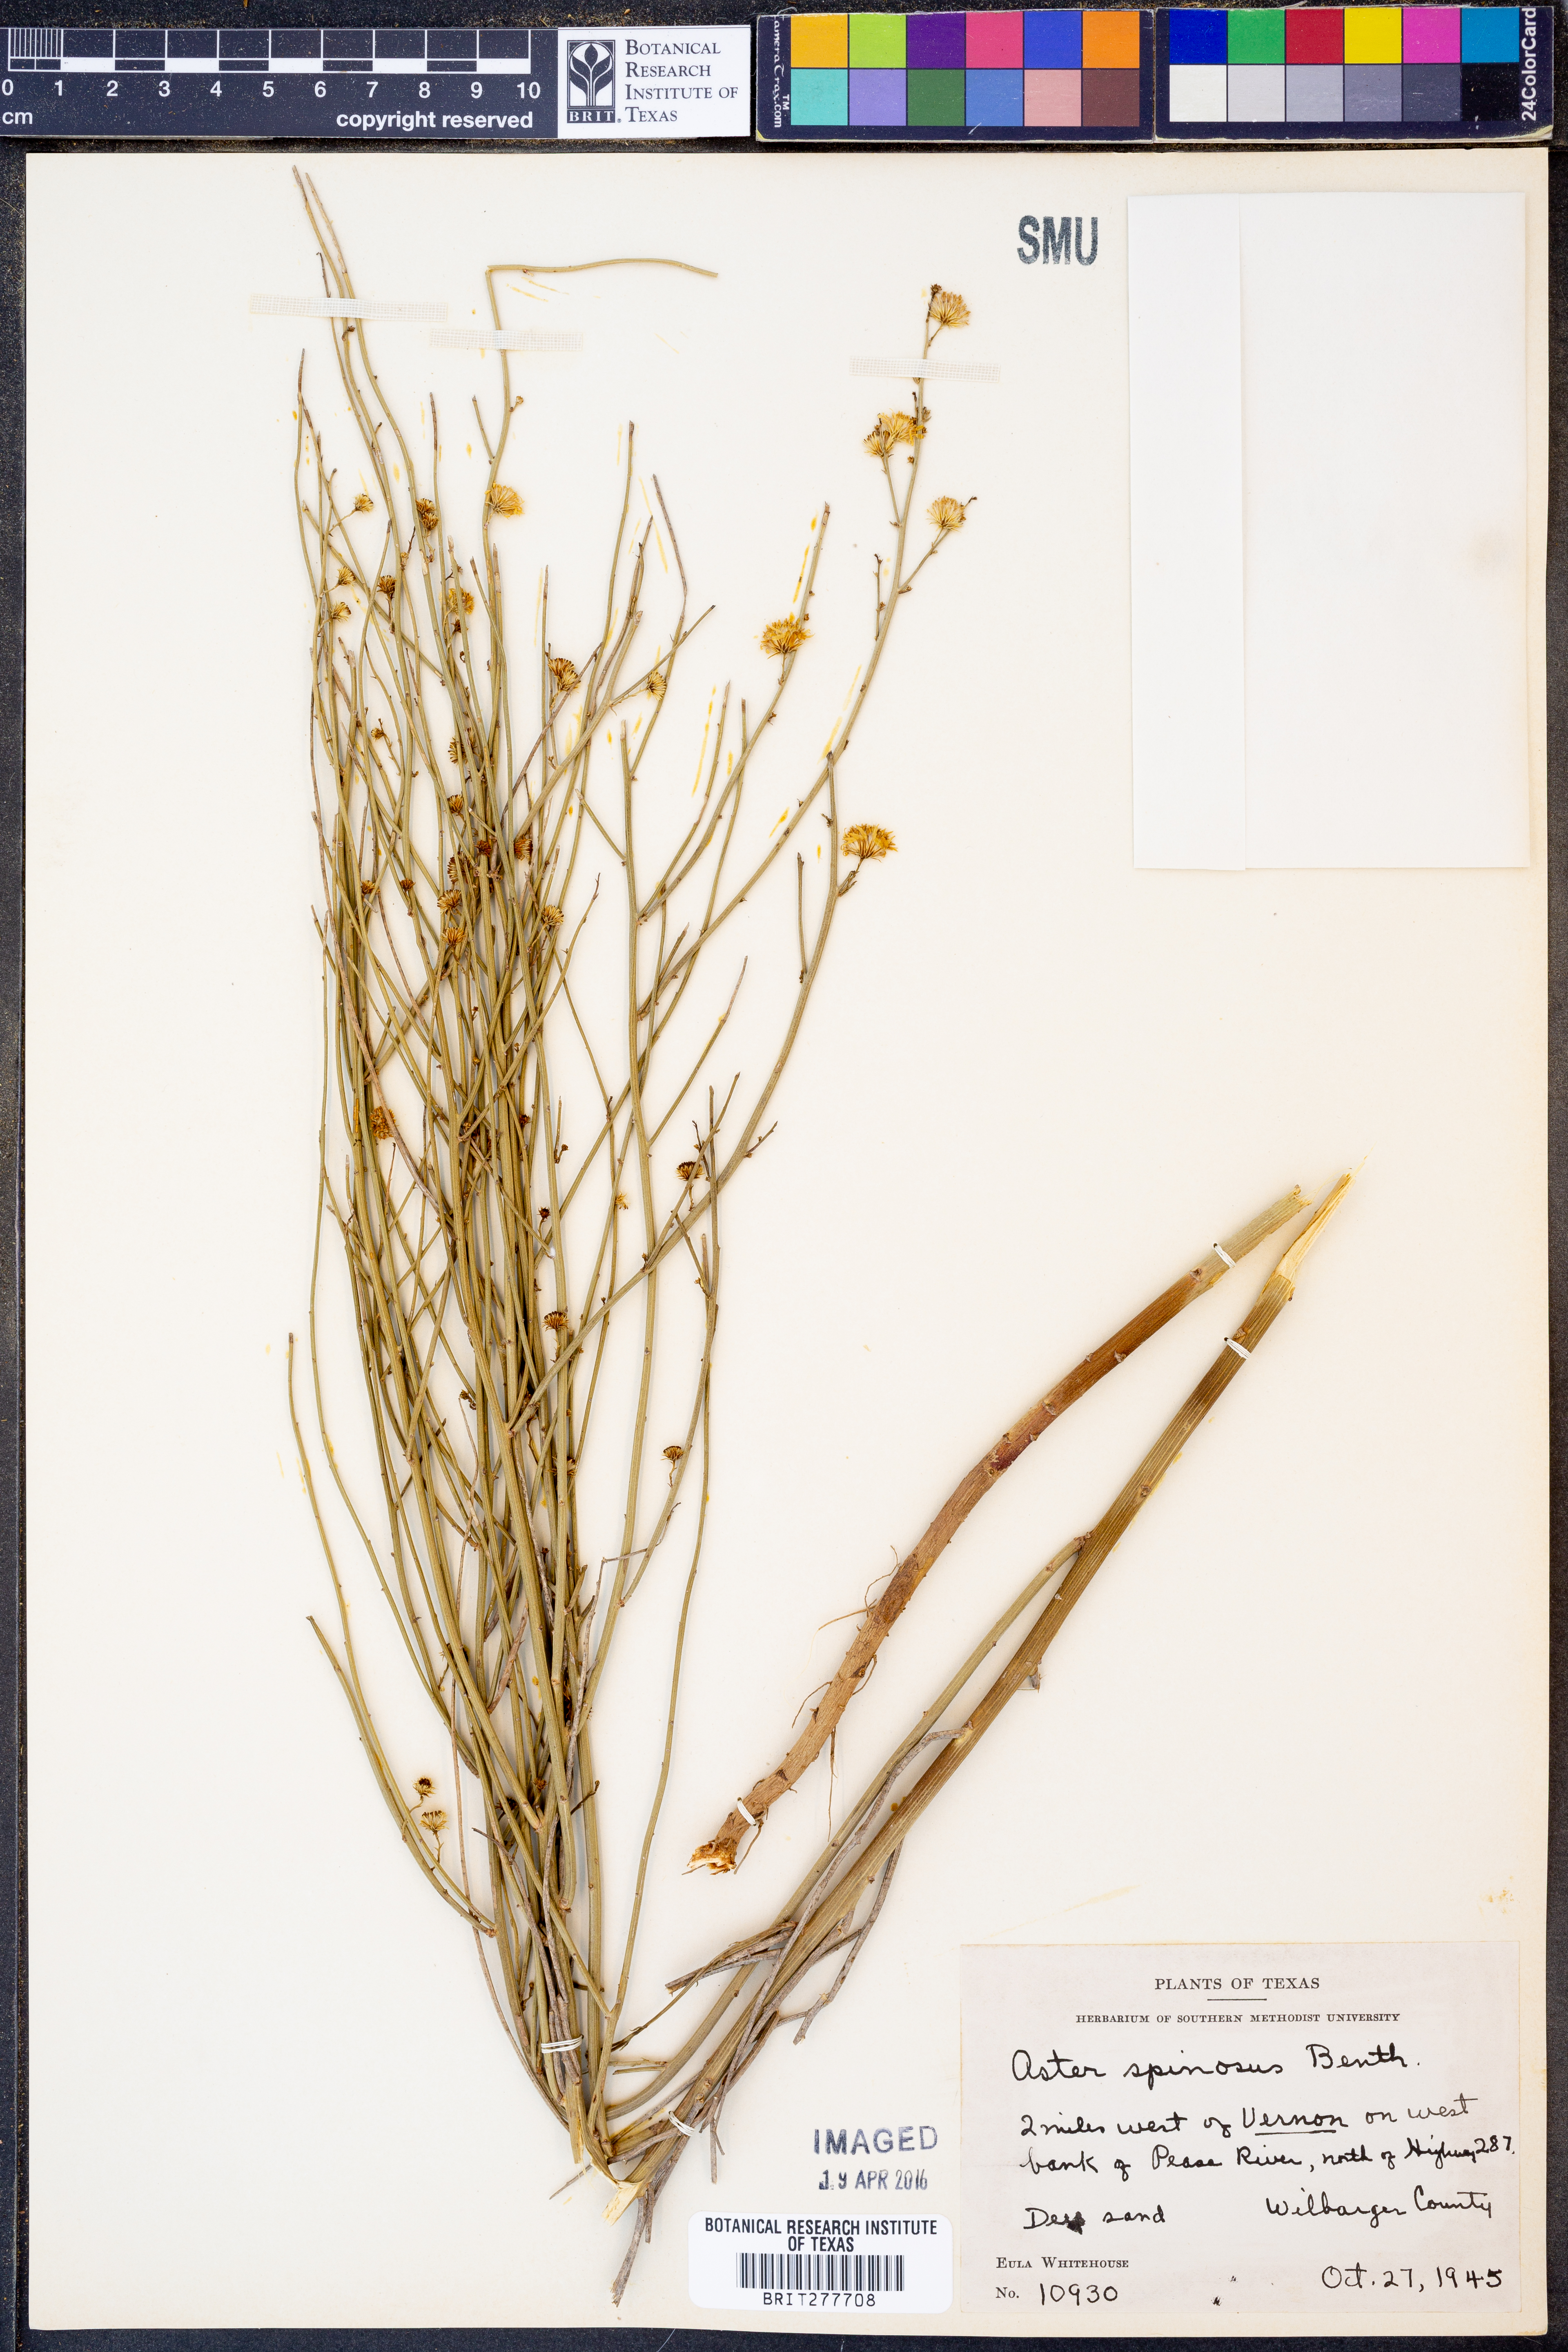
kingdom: Plantae
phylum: Tracheophyta
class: Magnoliopsida
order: Asterales
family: Asteraceae
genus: Chloracantha
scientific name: Chloracantha spinosa
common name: Mexican devilweed
